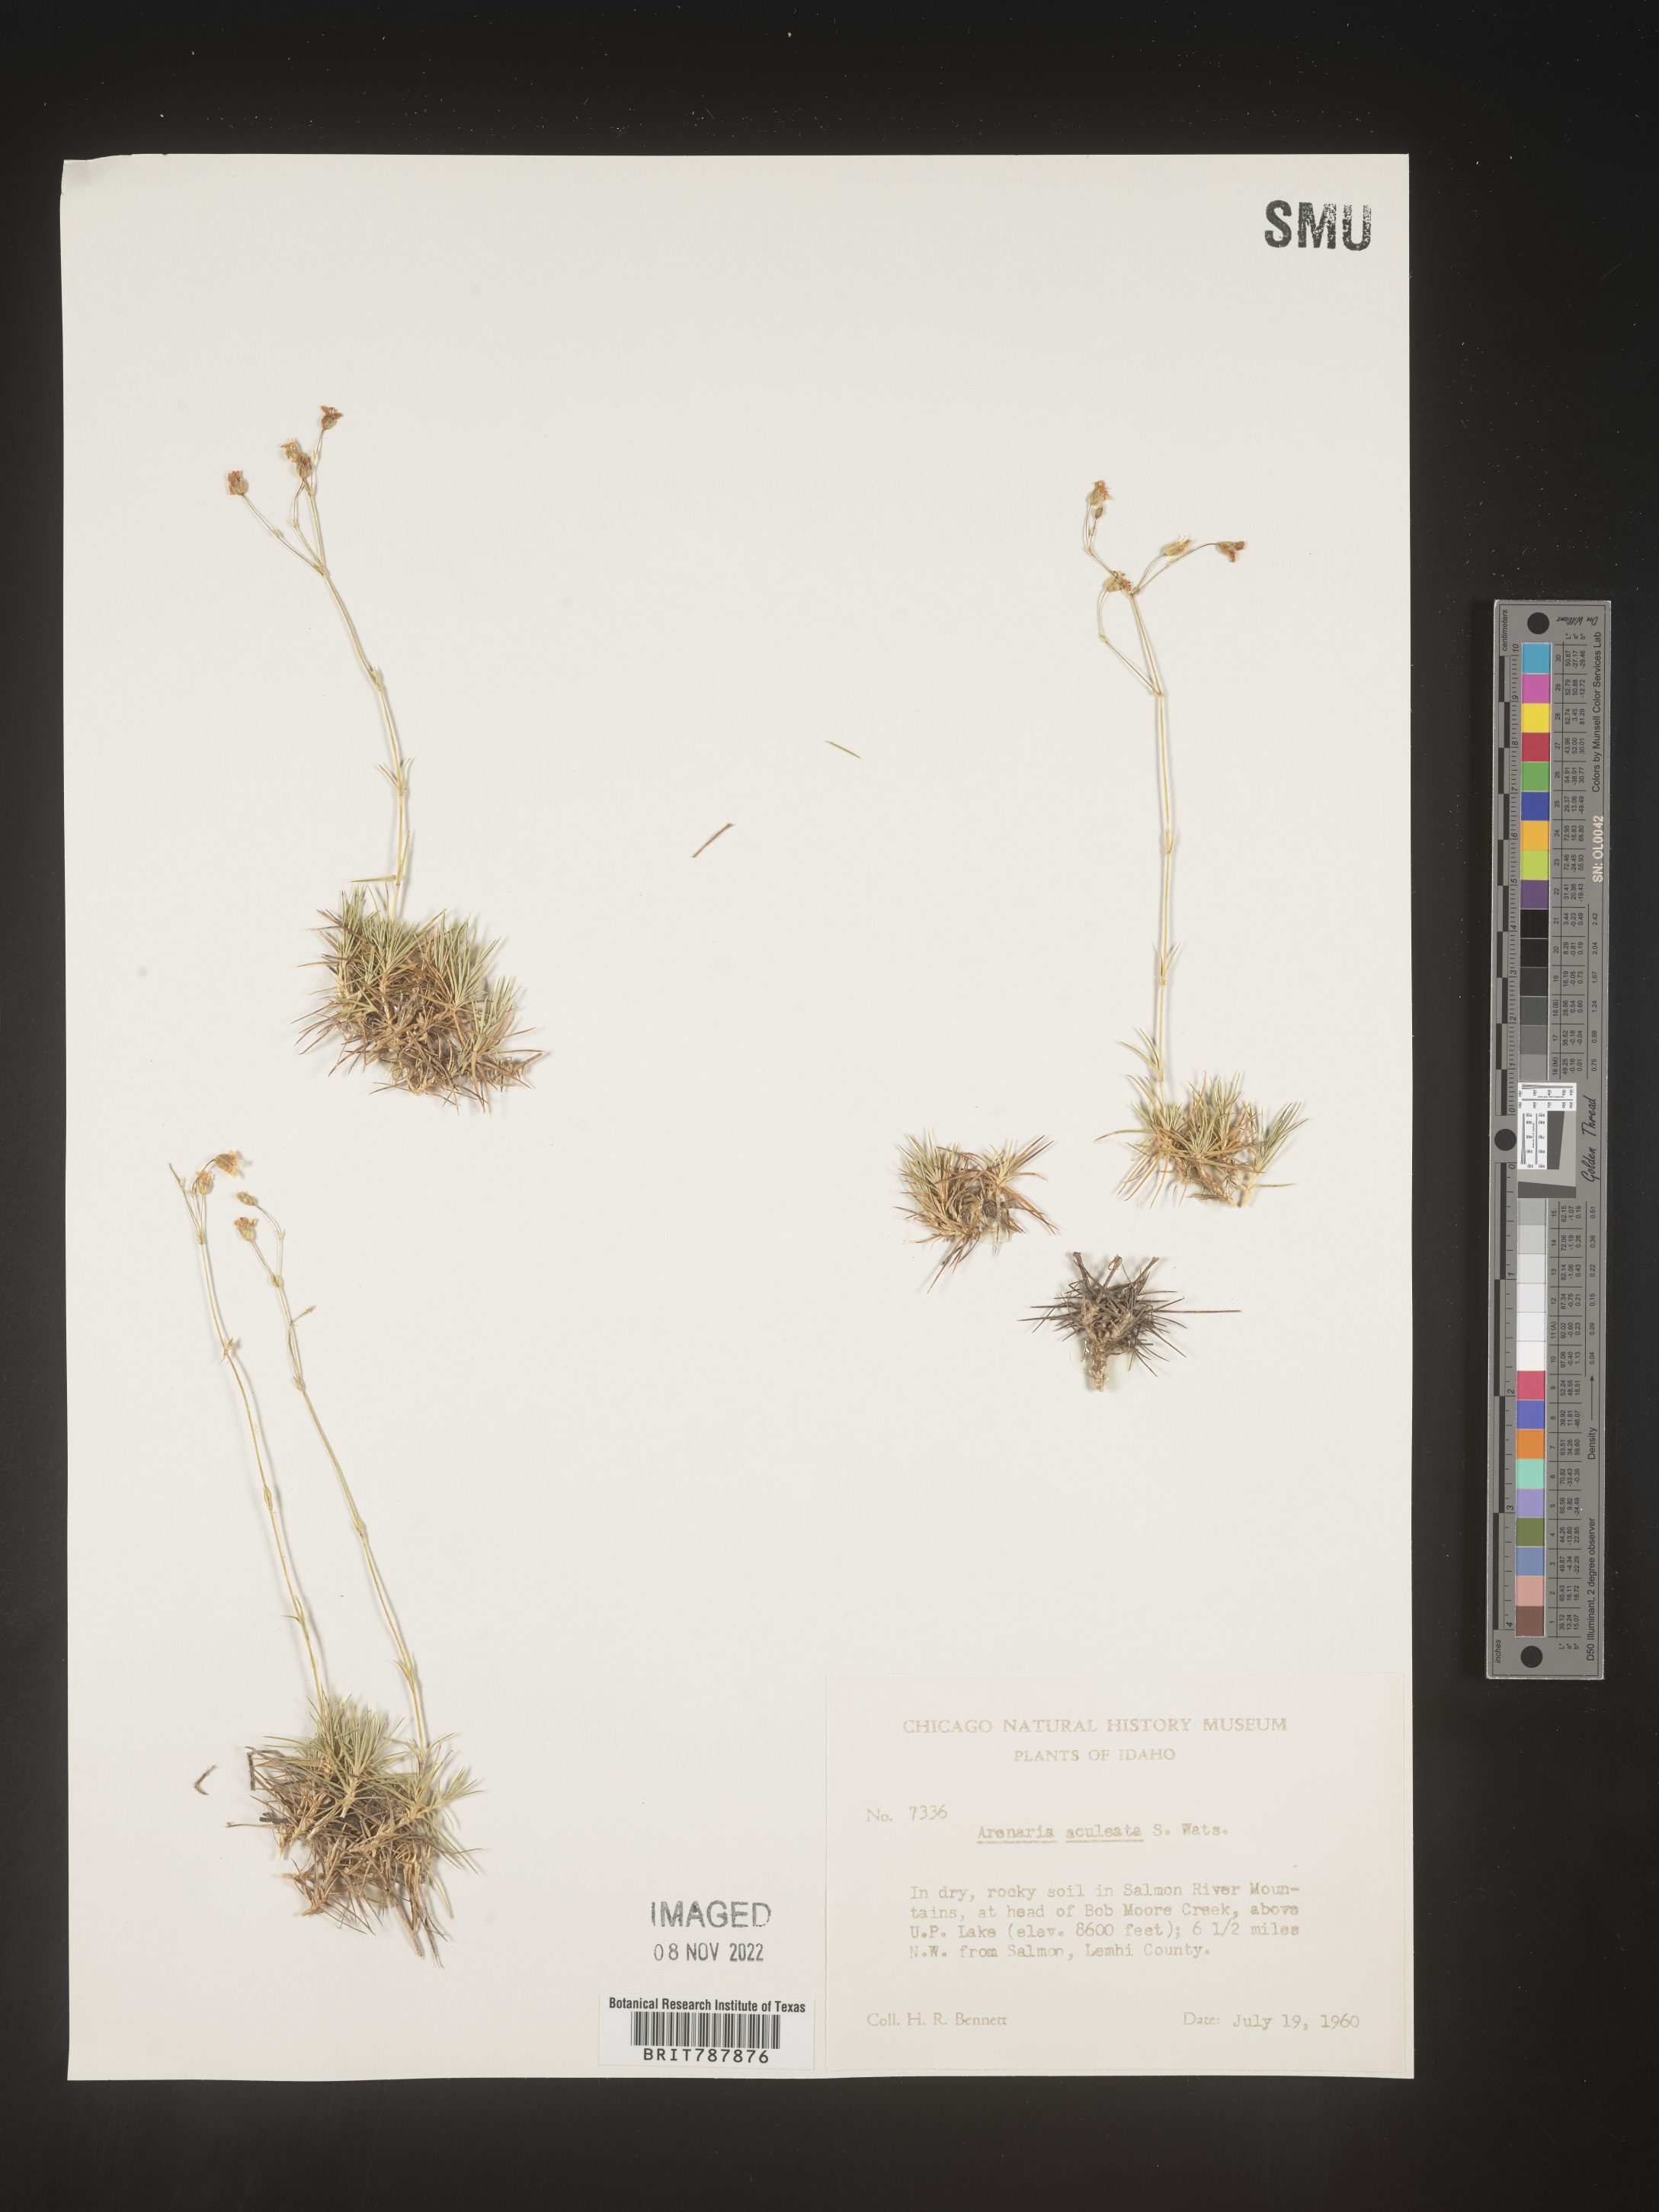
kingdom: Plantae
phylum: Tracheophyta
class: Magnoliopsida
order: Caryophyllales
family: Caryophyllaceae
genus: Arenaria
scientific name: Arenaria
